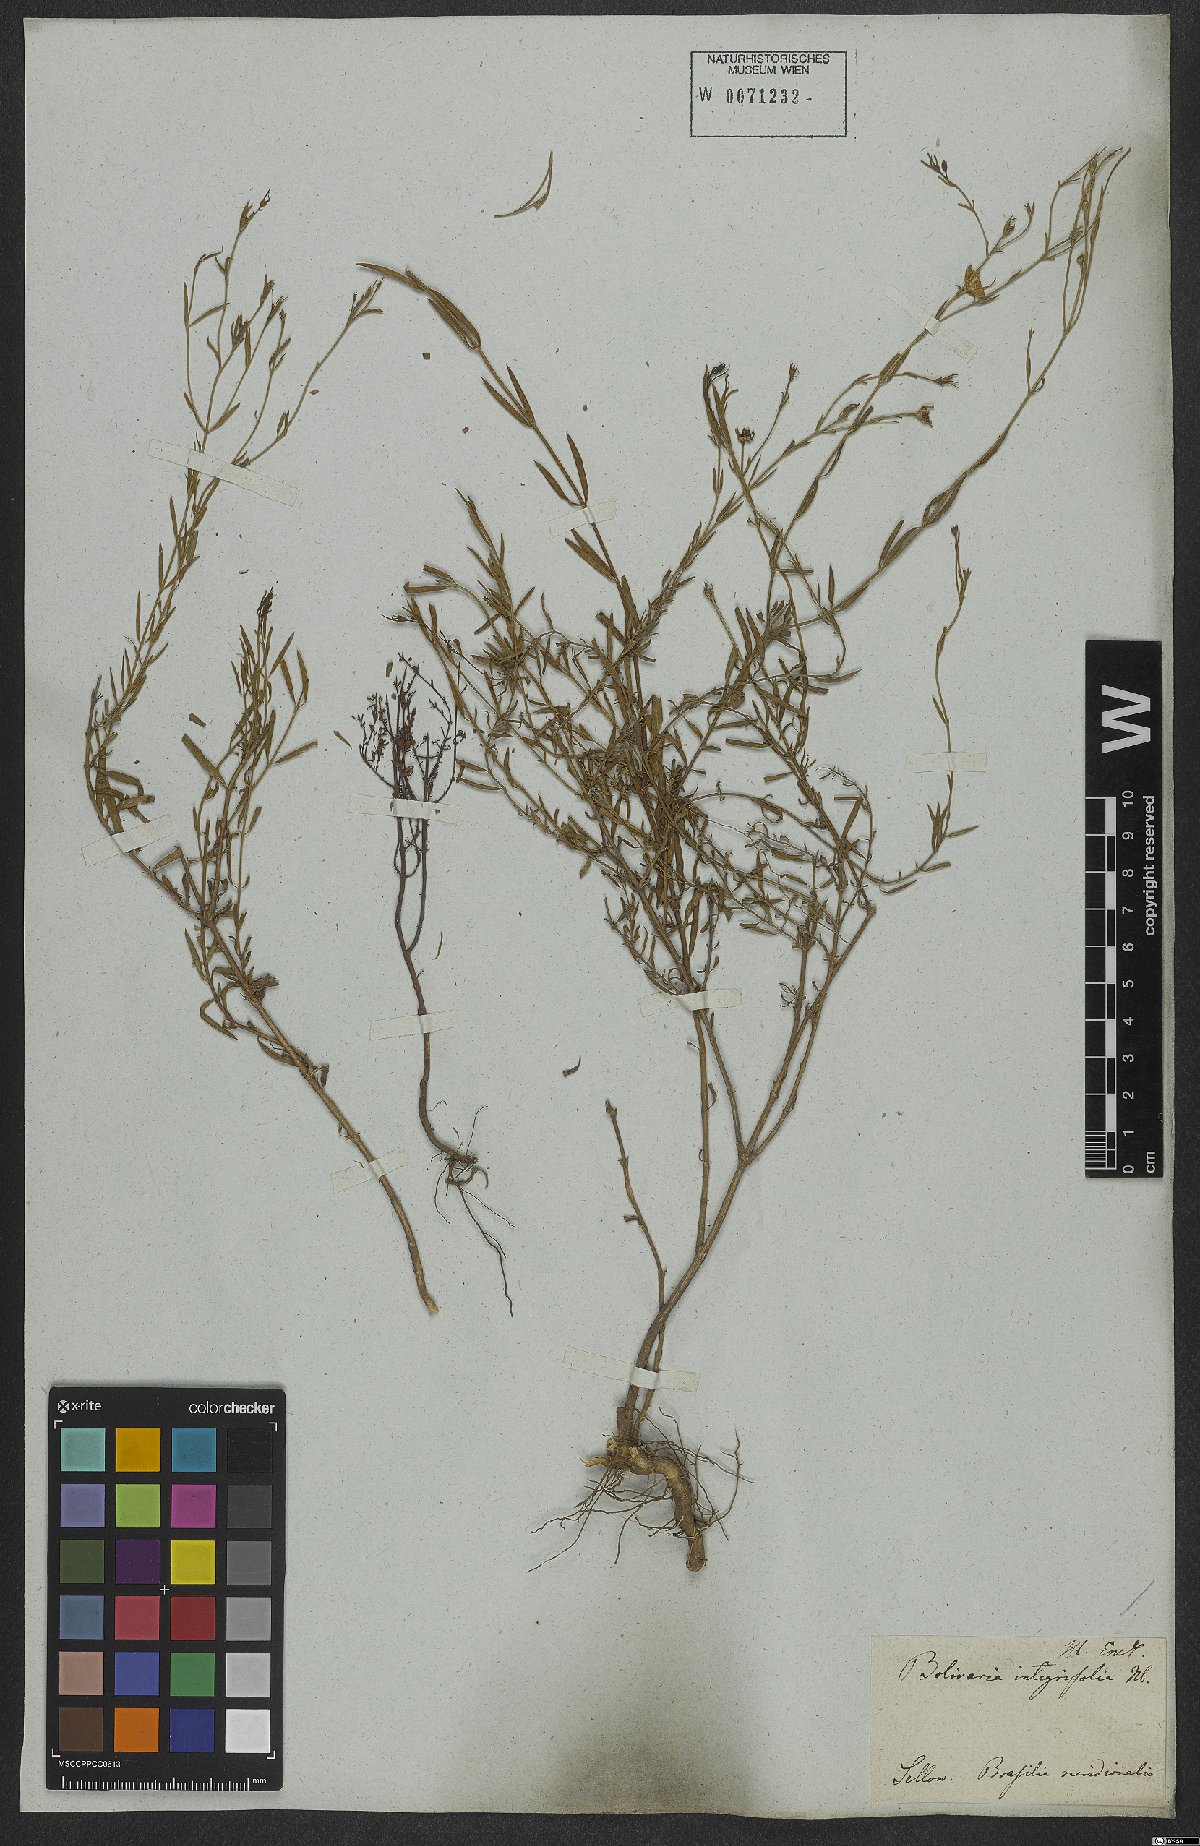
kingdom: Plantae
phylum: Tracheophyta
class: Magnoliopsida
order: Lamiales
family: Oleaceae
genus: Menodora
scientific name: Menodora integrifolia
